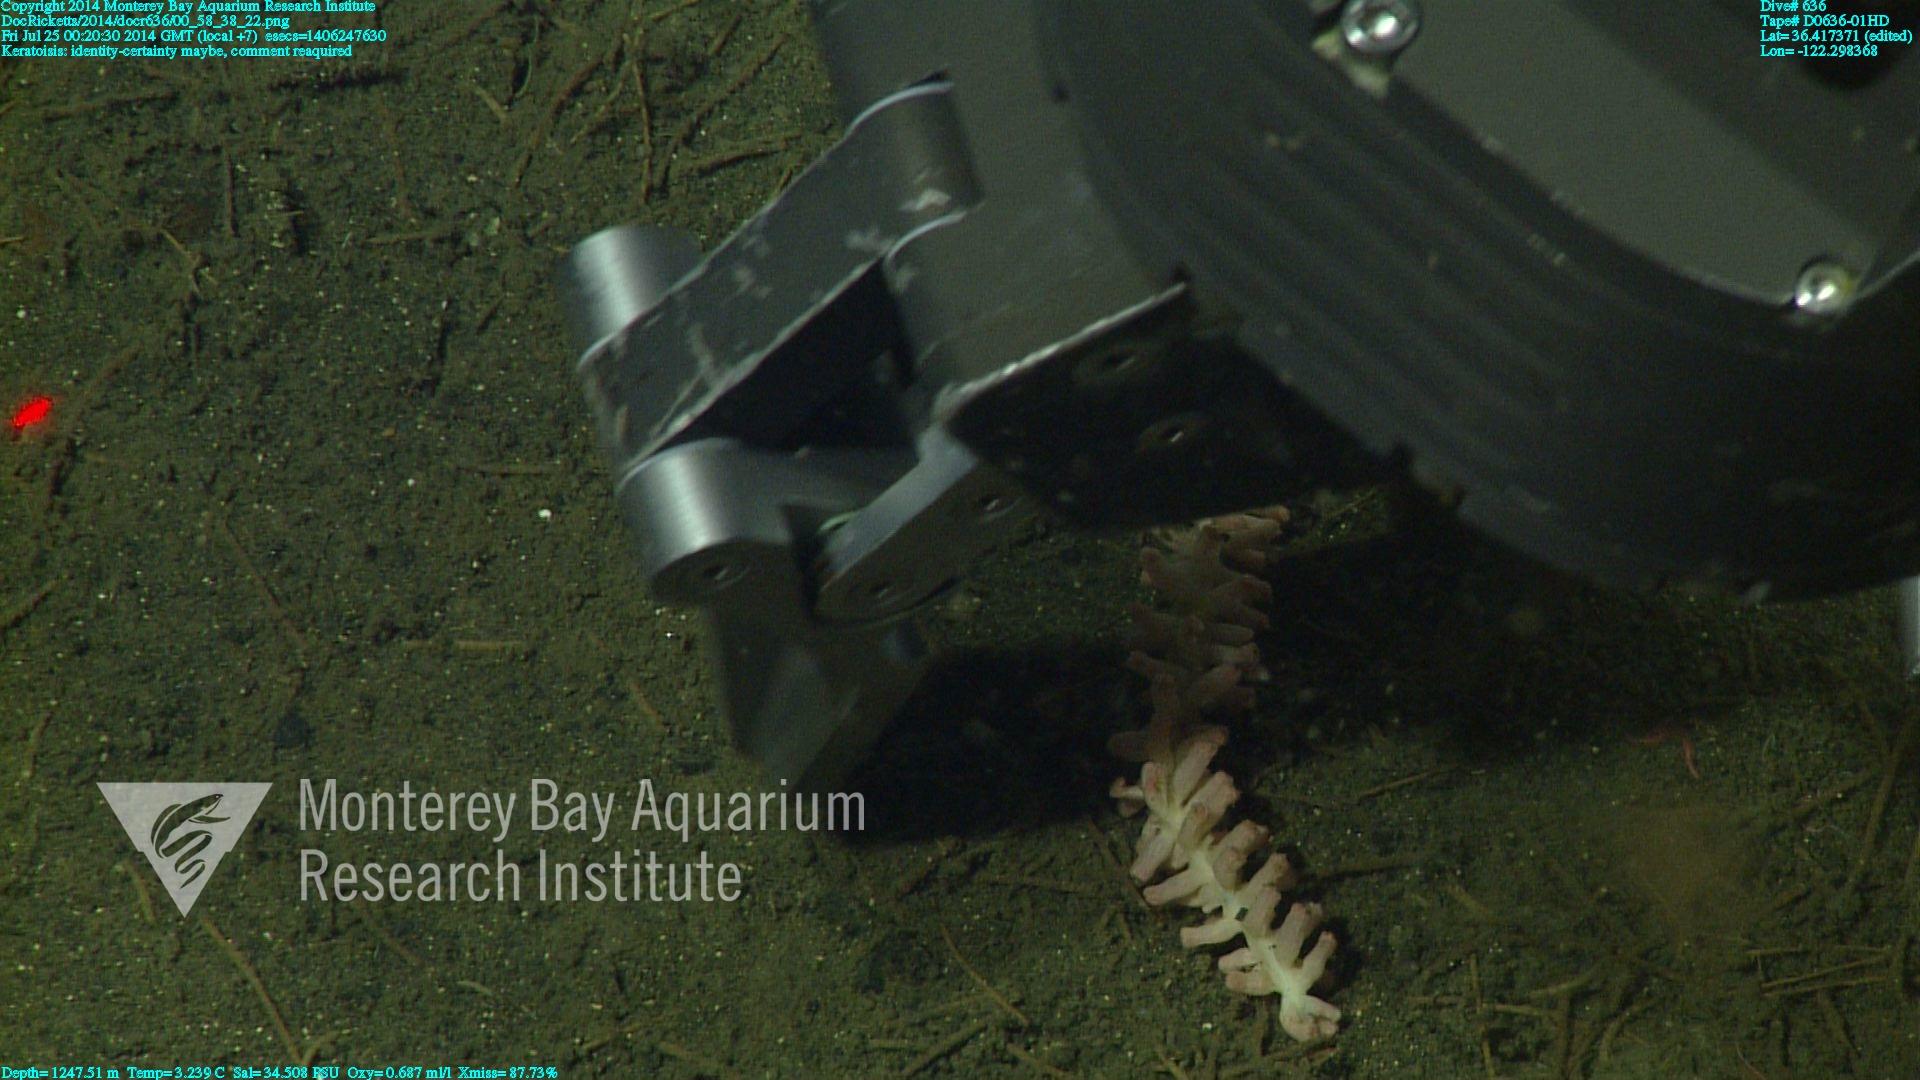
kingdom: Animalia
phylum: Cnidaria
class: Anthozoa
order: Scleralcyonacea
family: Keratoisididae
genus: Keratoisis
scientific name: Keratoisis
